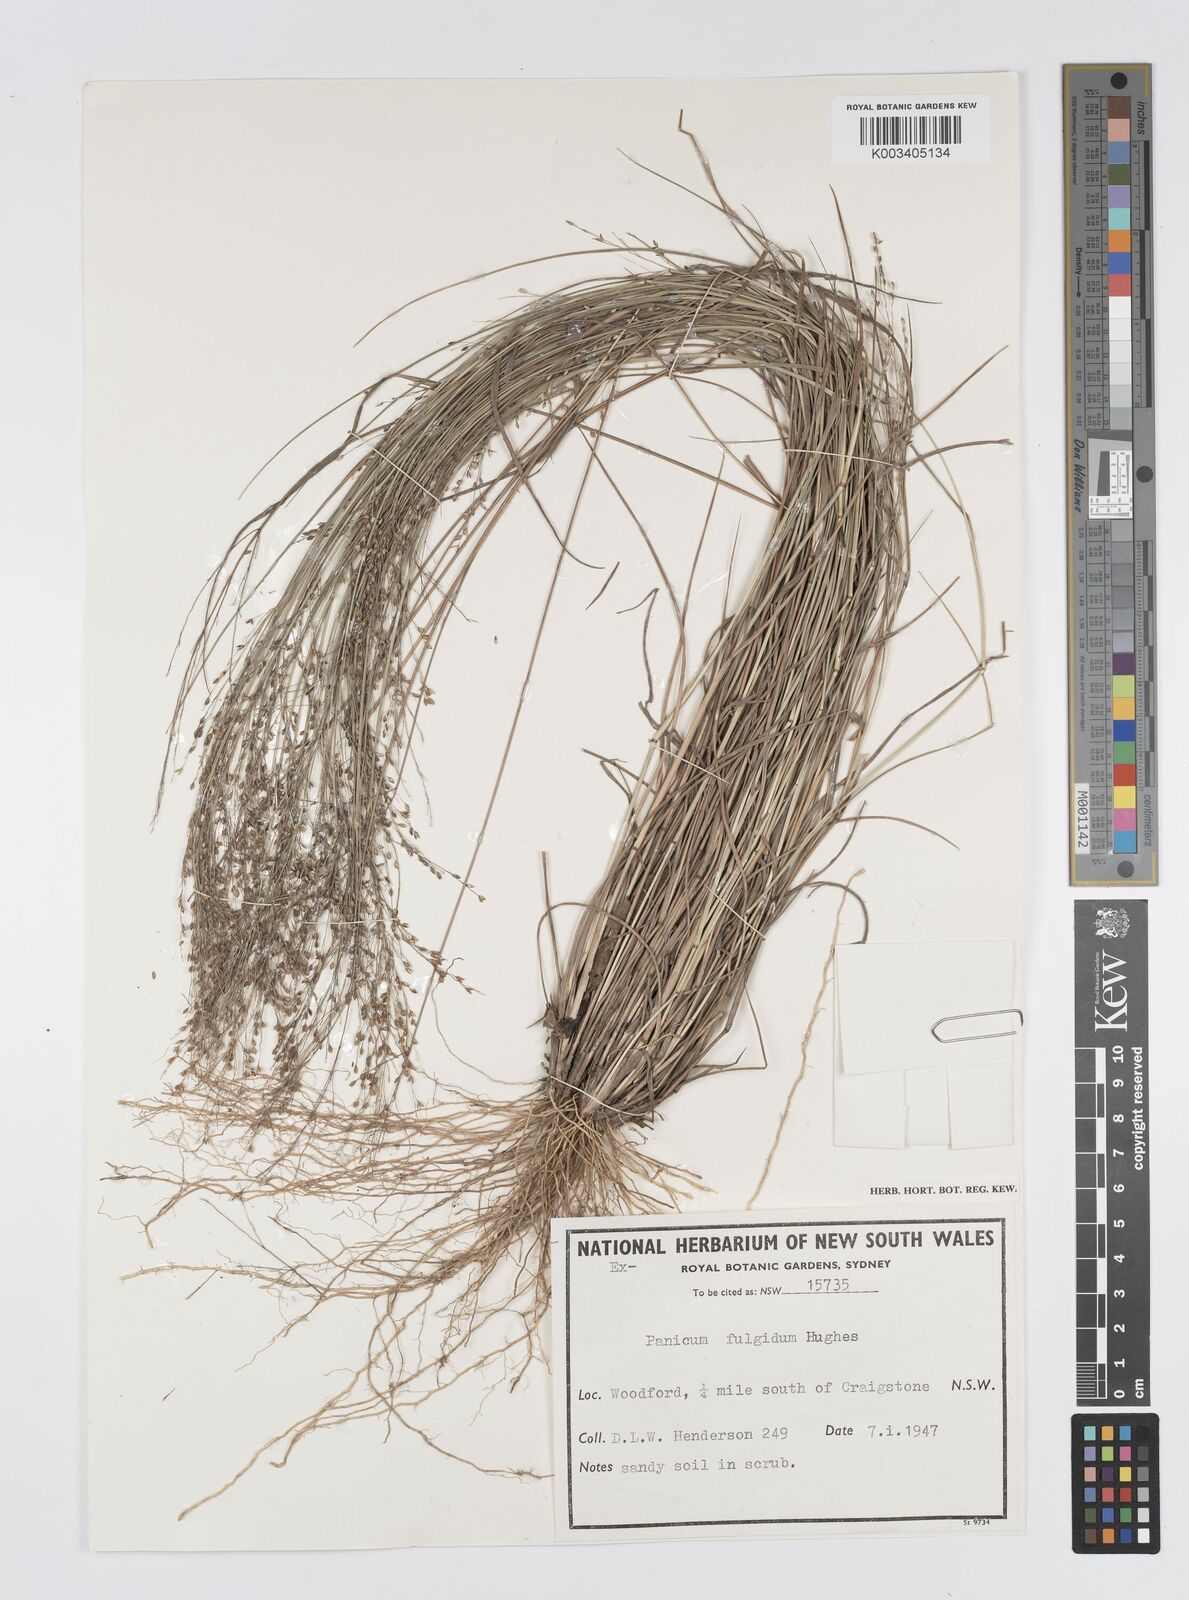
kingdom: Plantae
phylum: Tracheophyta
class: Liliopsida
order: Poales
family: Poaceae
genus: Panicum
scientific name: Panicum simile
